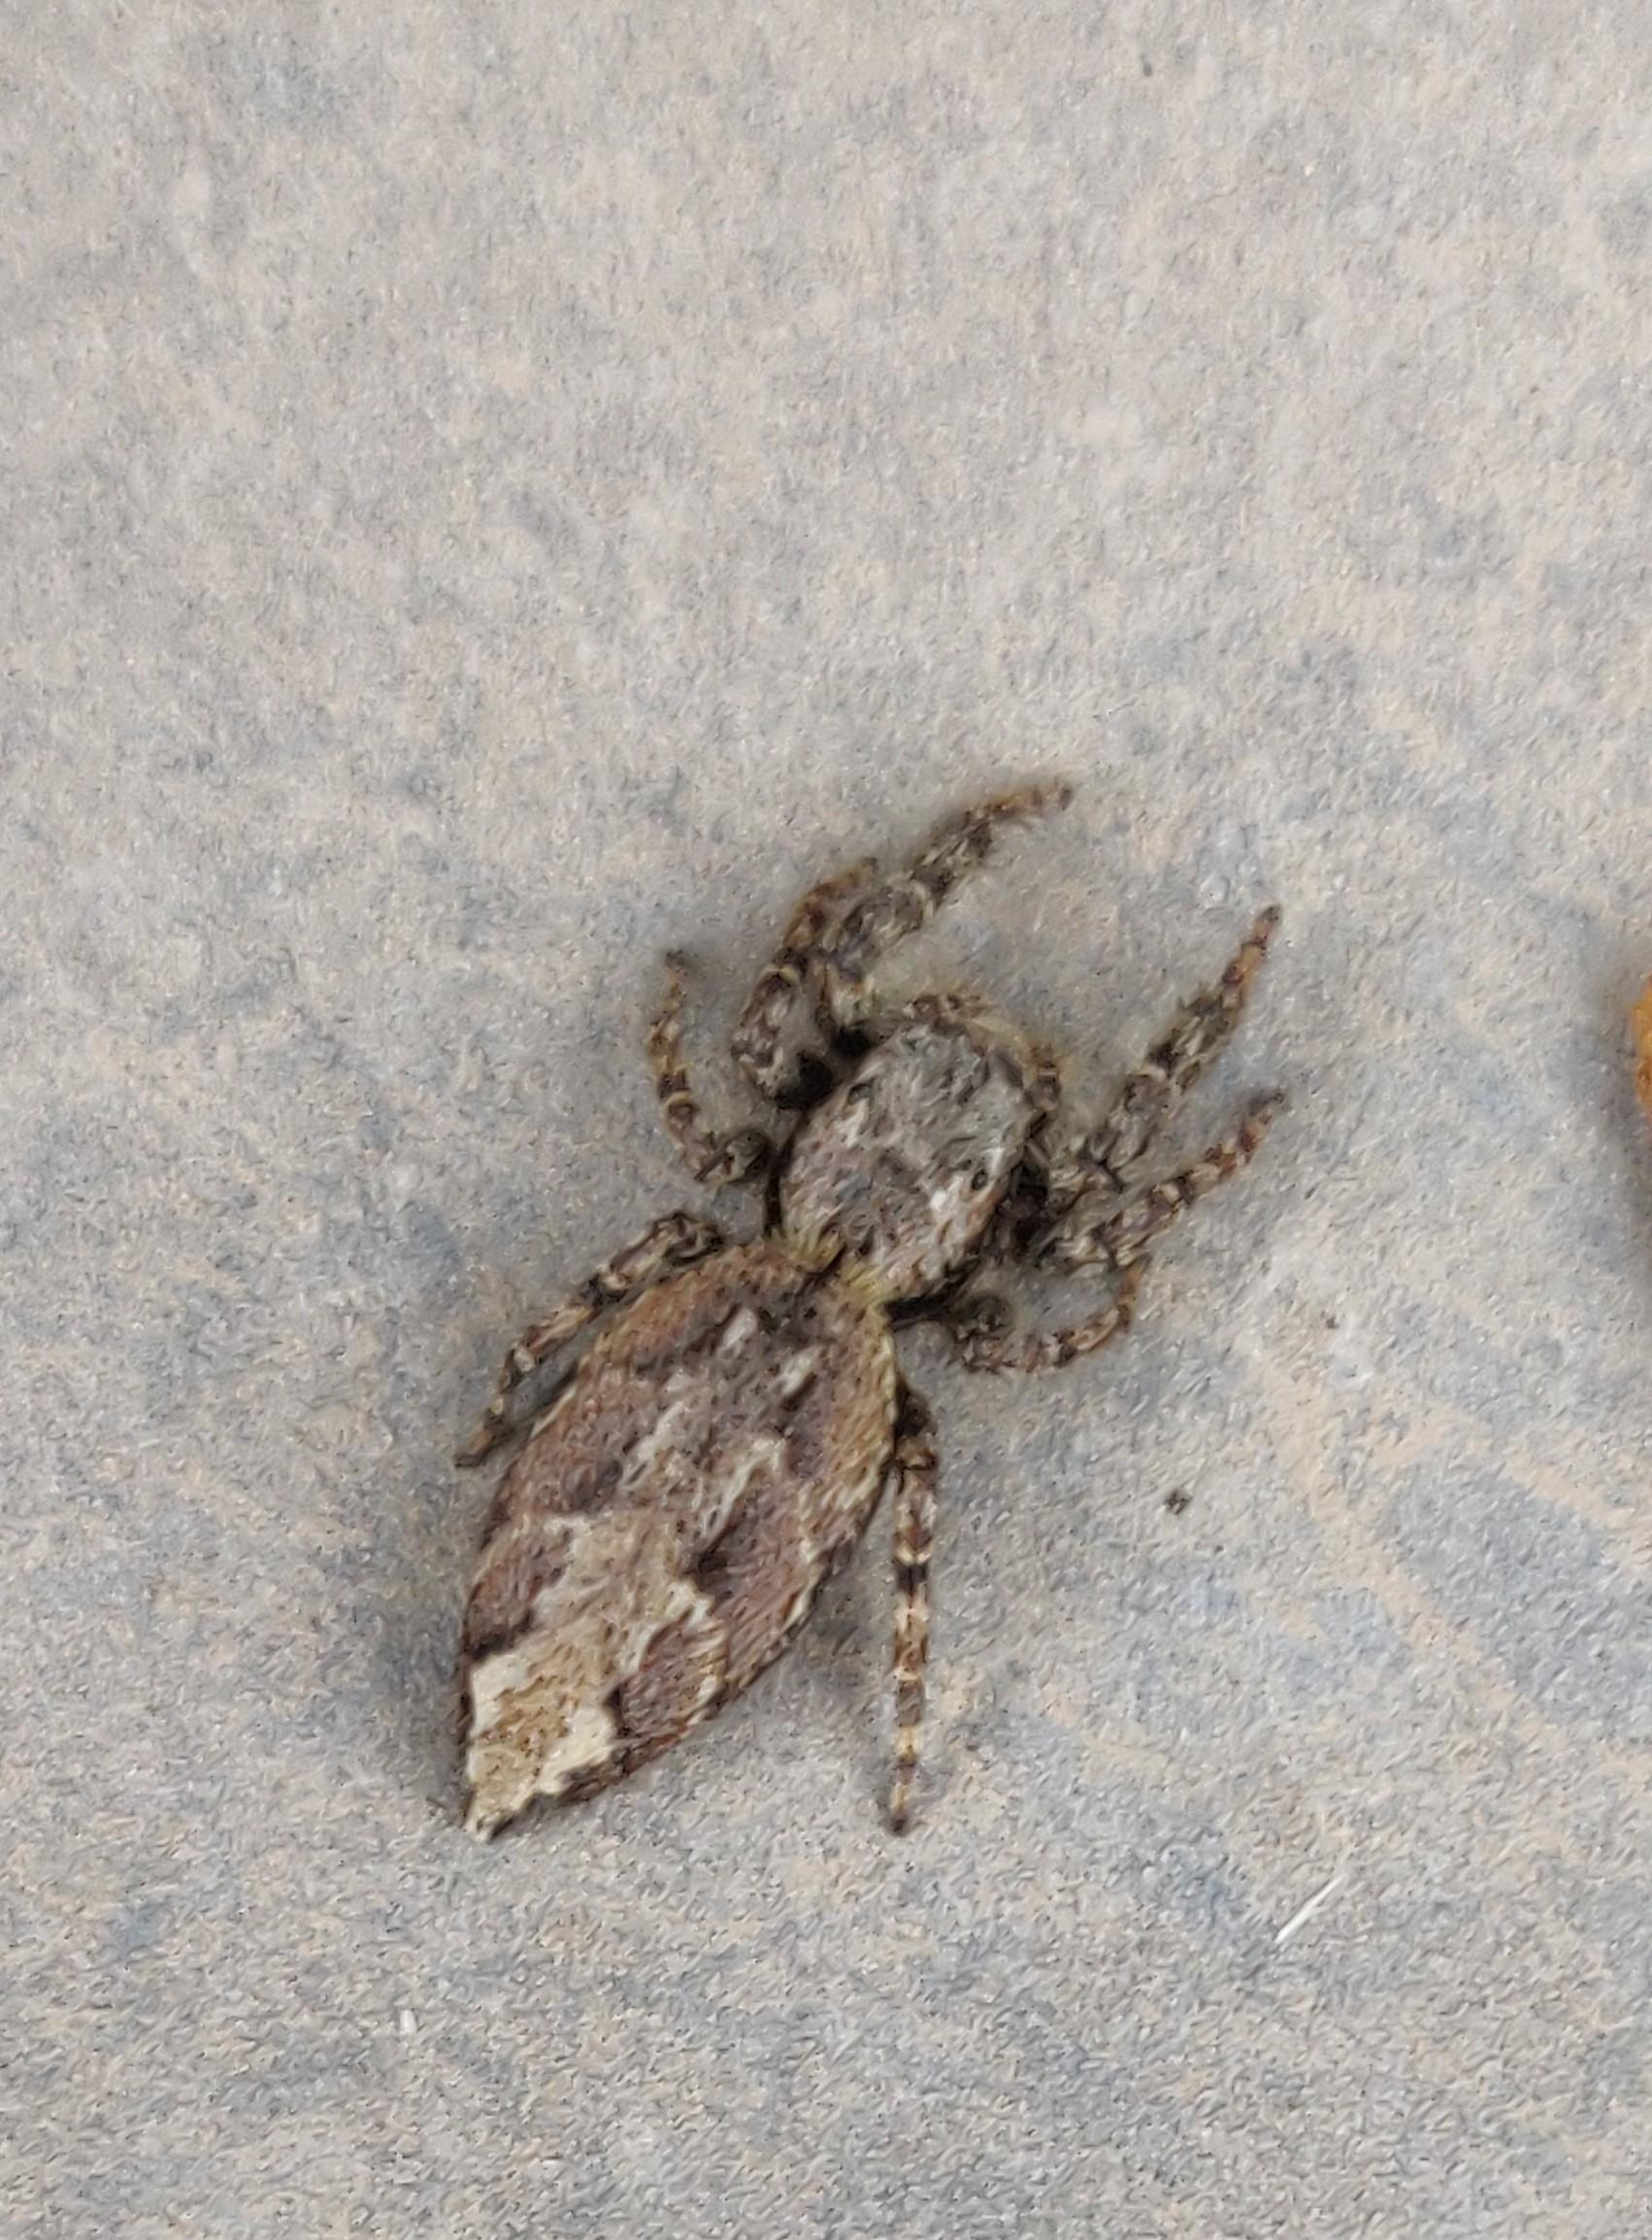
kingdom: Animalia
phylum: Arthropoda
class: Arachnida
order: Araneae
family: Salticidae
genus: Marpissa
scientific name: Marpissa muscosa
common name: Stor springedderkop
